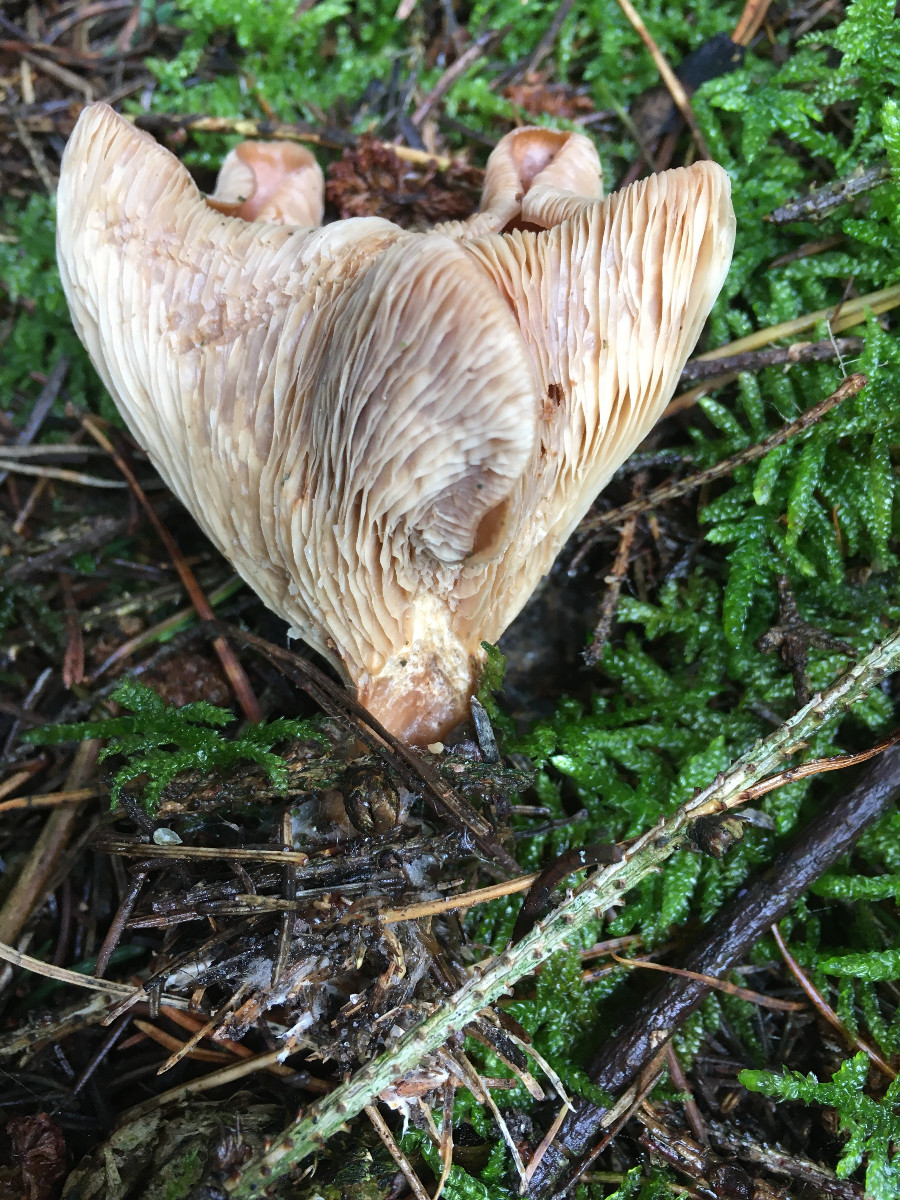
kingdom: Fungi
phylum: Basidiomycota
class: Agaricomycetes
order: Agaricales
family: Tricholomataceae
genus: Paralepista
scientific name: Paralepista flaccida
